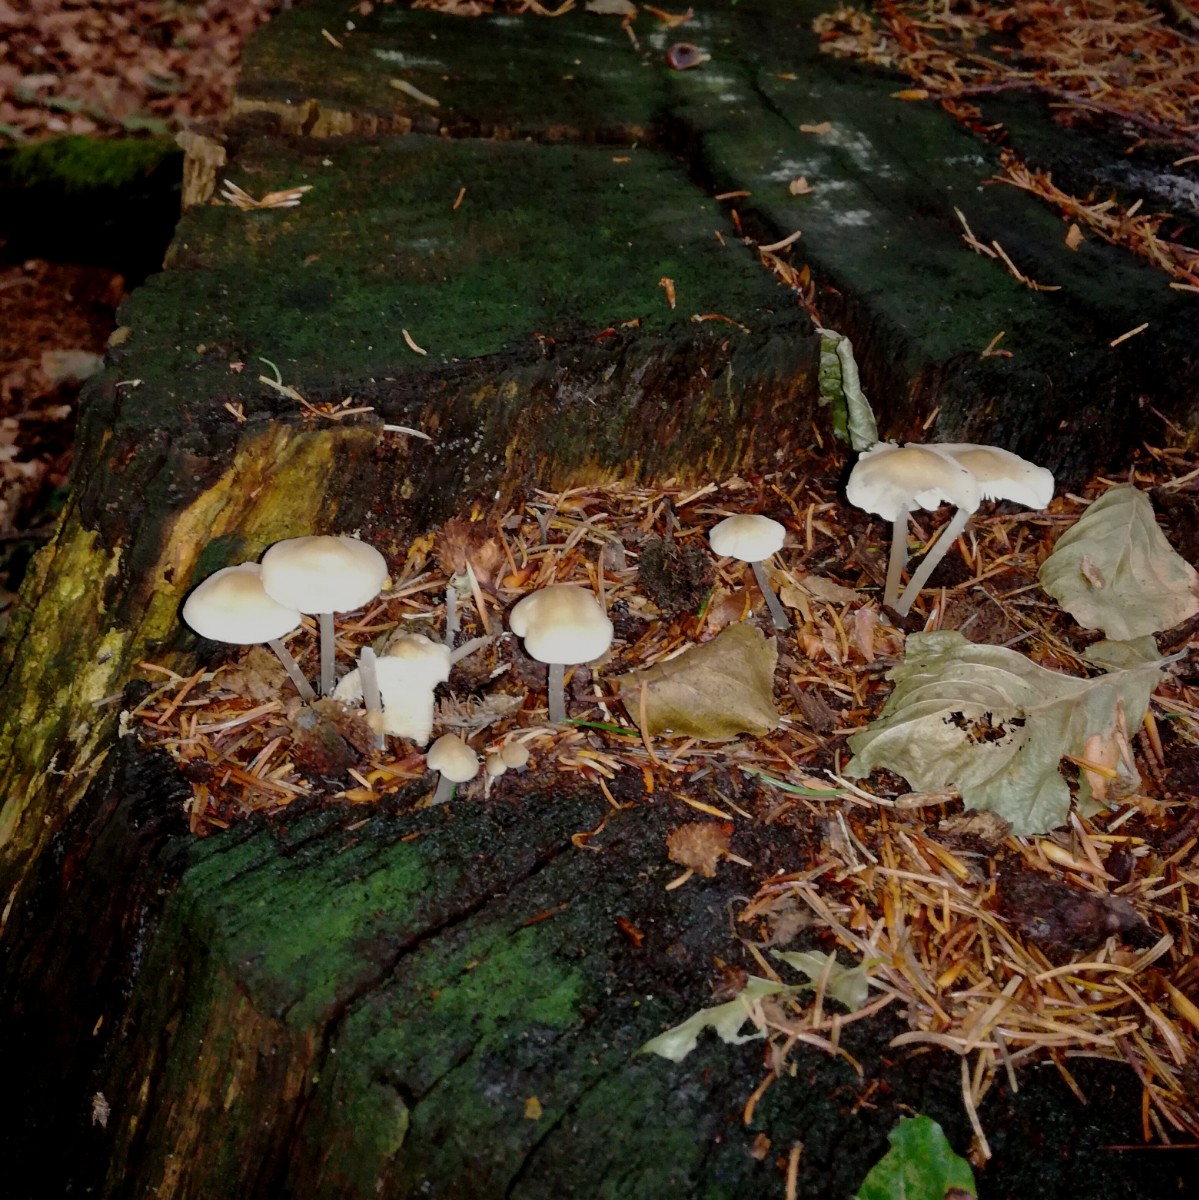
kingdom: Fungi
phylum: Basidiomycota
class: Agaricomycetes
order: Agaricales
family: Mycenaceae
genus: Mycena
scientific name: Mycena galericulata
